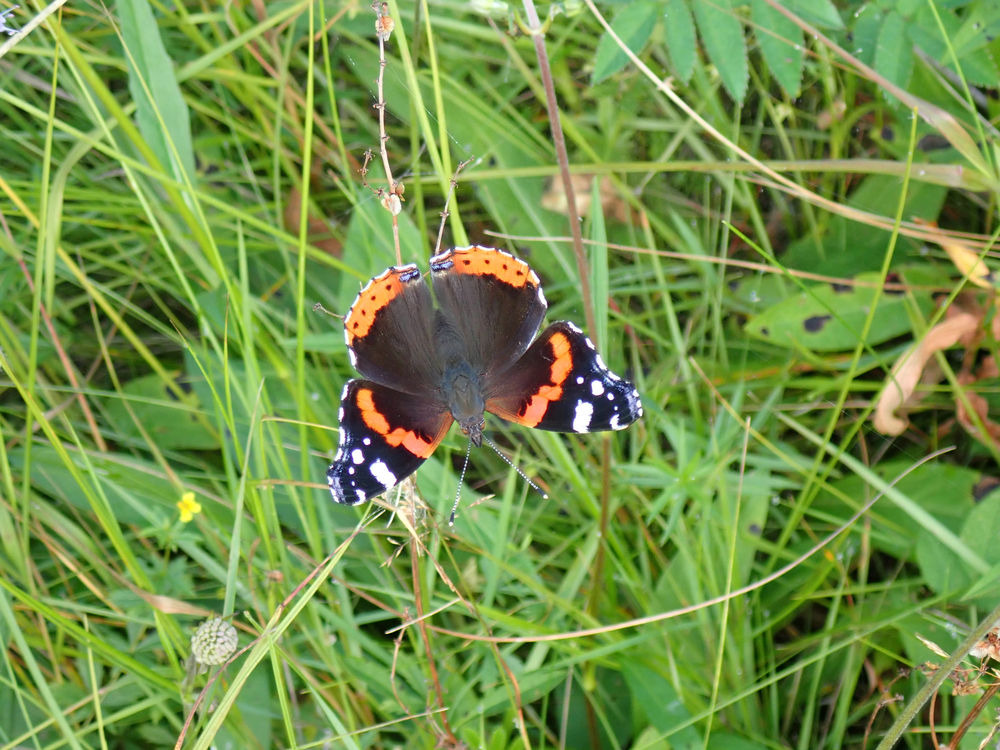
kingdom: Animalia
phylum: Arthropoda
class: Insecta
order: Lepidoptera
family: Nymphalidae
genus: Vanessa
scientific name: Vanessa atalanta
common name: Admiral
